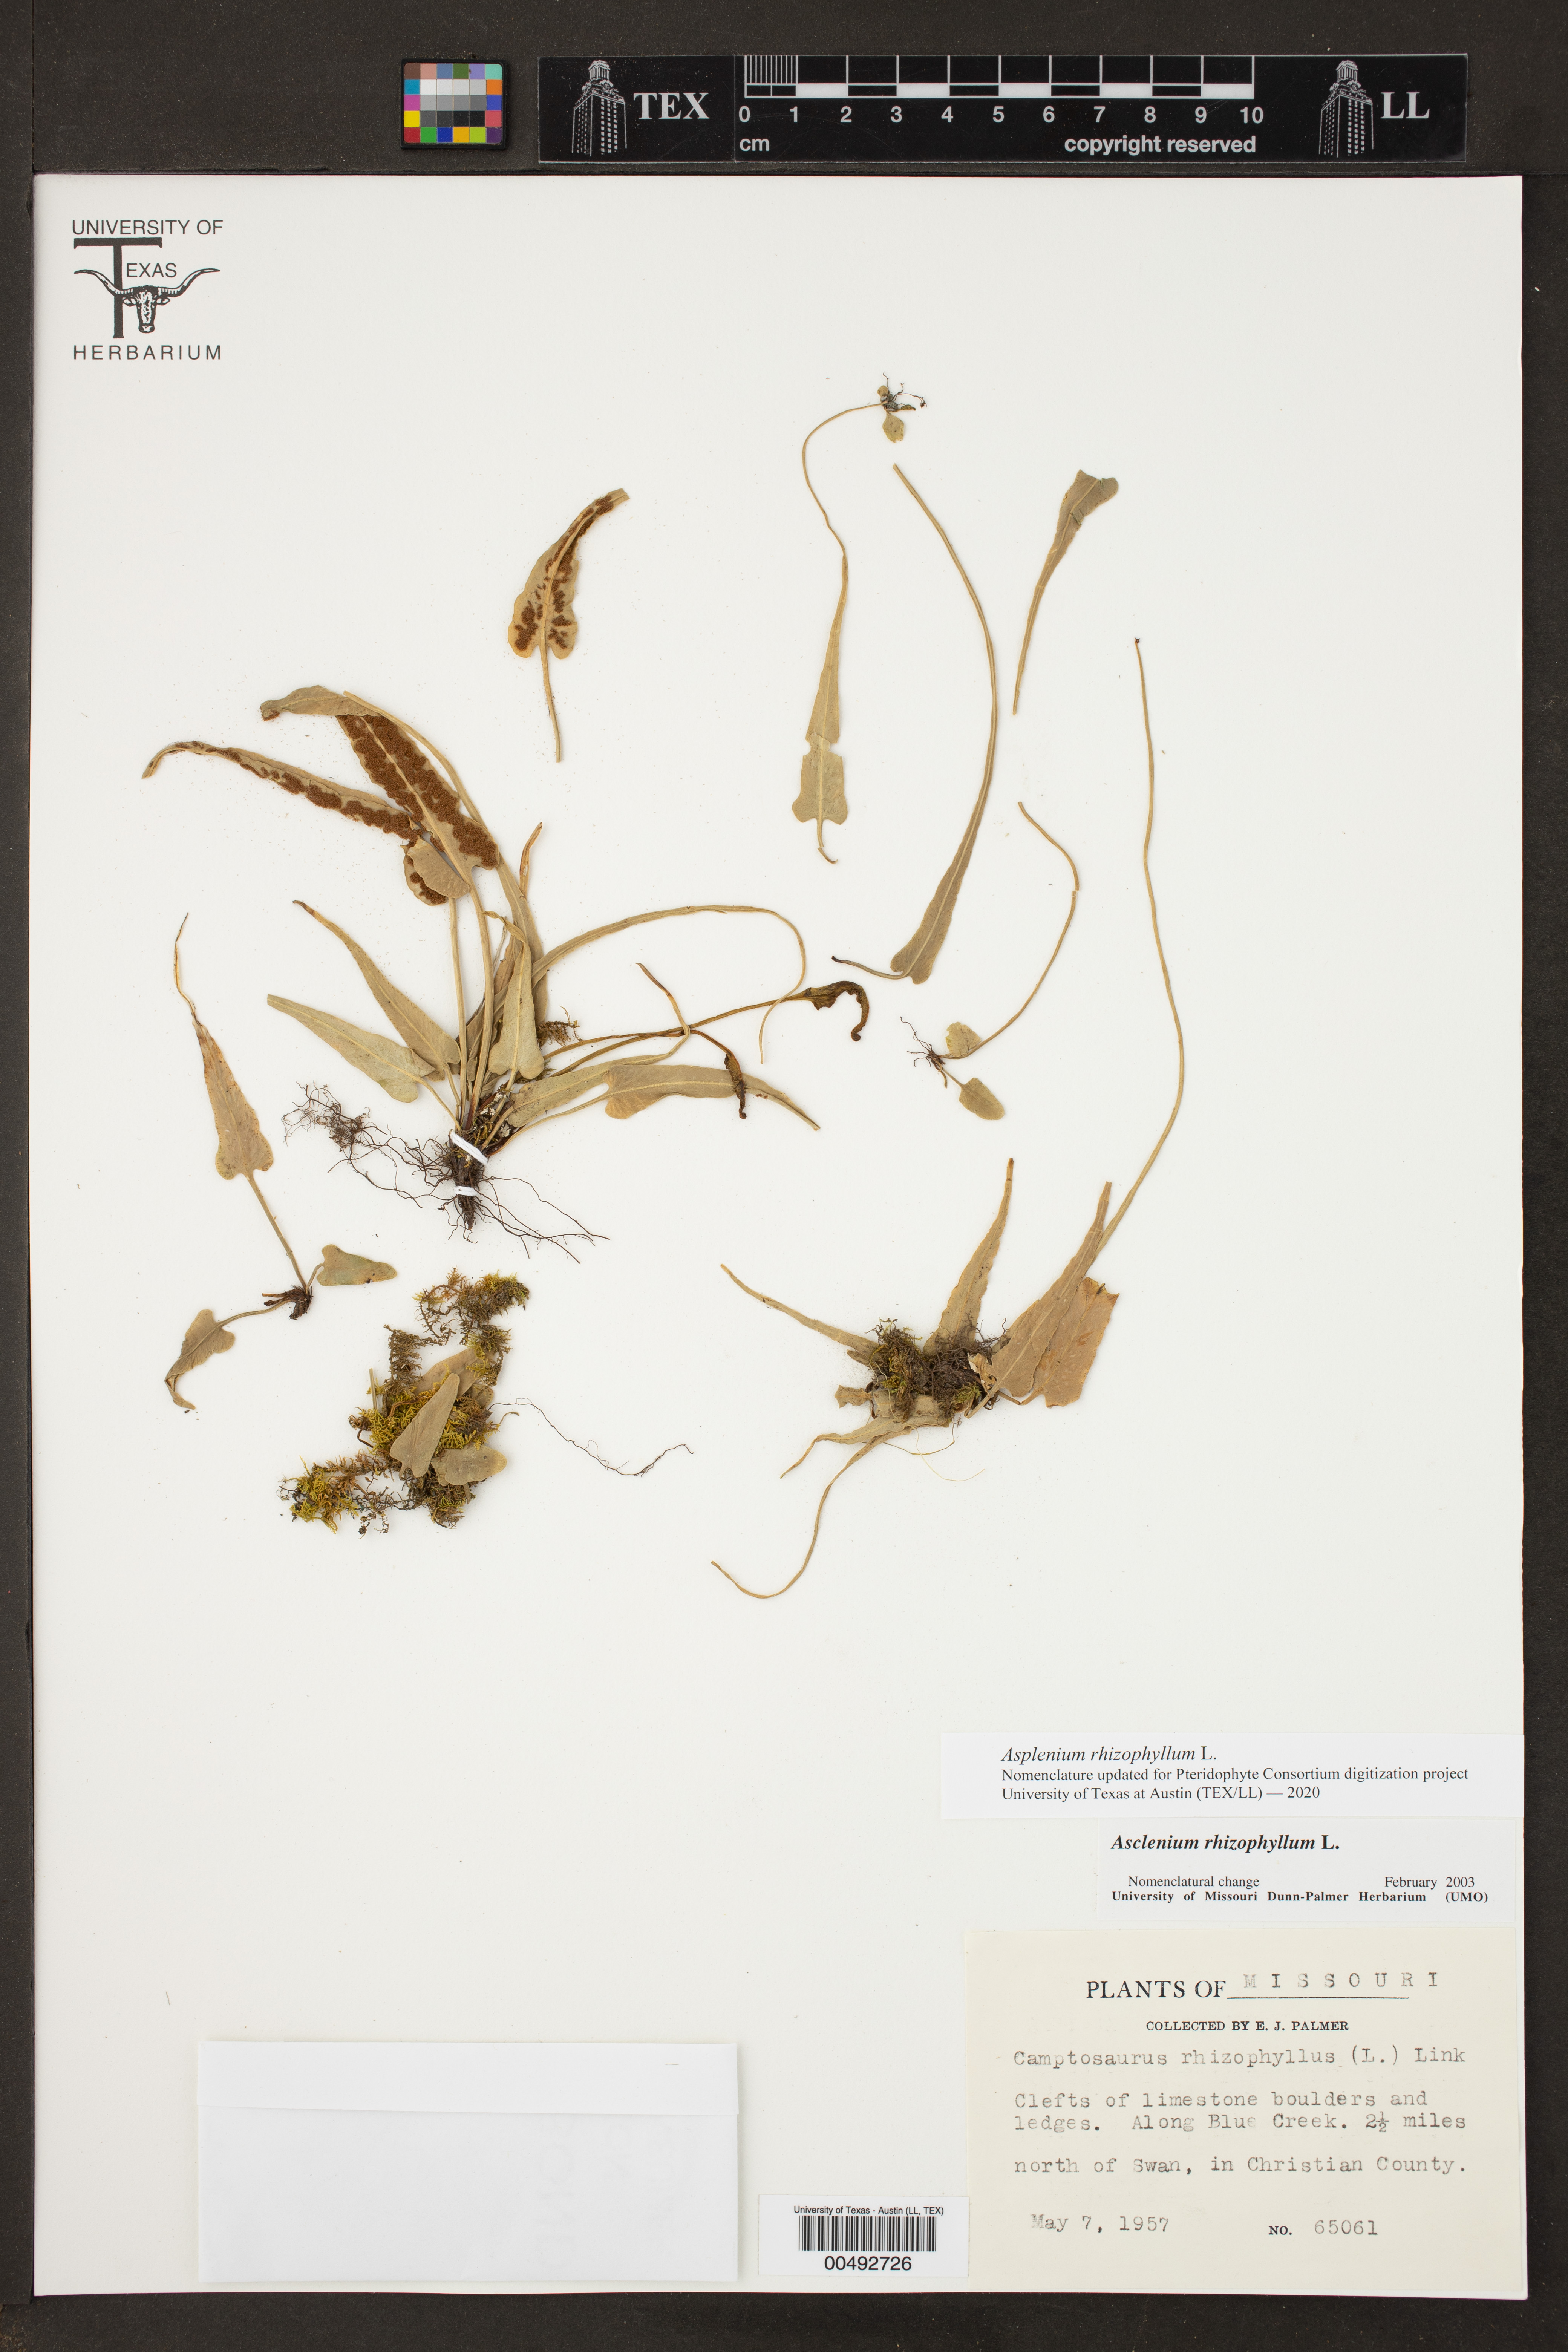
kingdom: Plantae
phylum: Tracheophyta
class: Polypodiopsida
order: Polypodiales
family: Aspleniaceae
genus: Asplenium
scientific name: Asplenium rhizophyllum
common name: Walking fern
